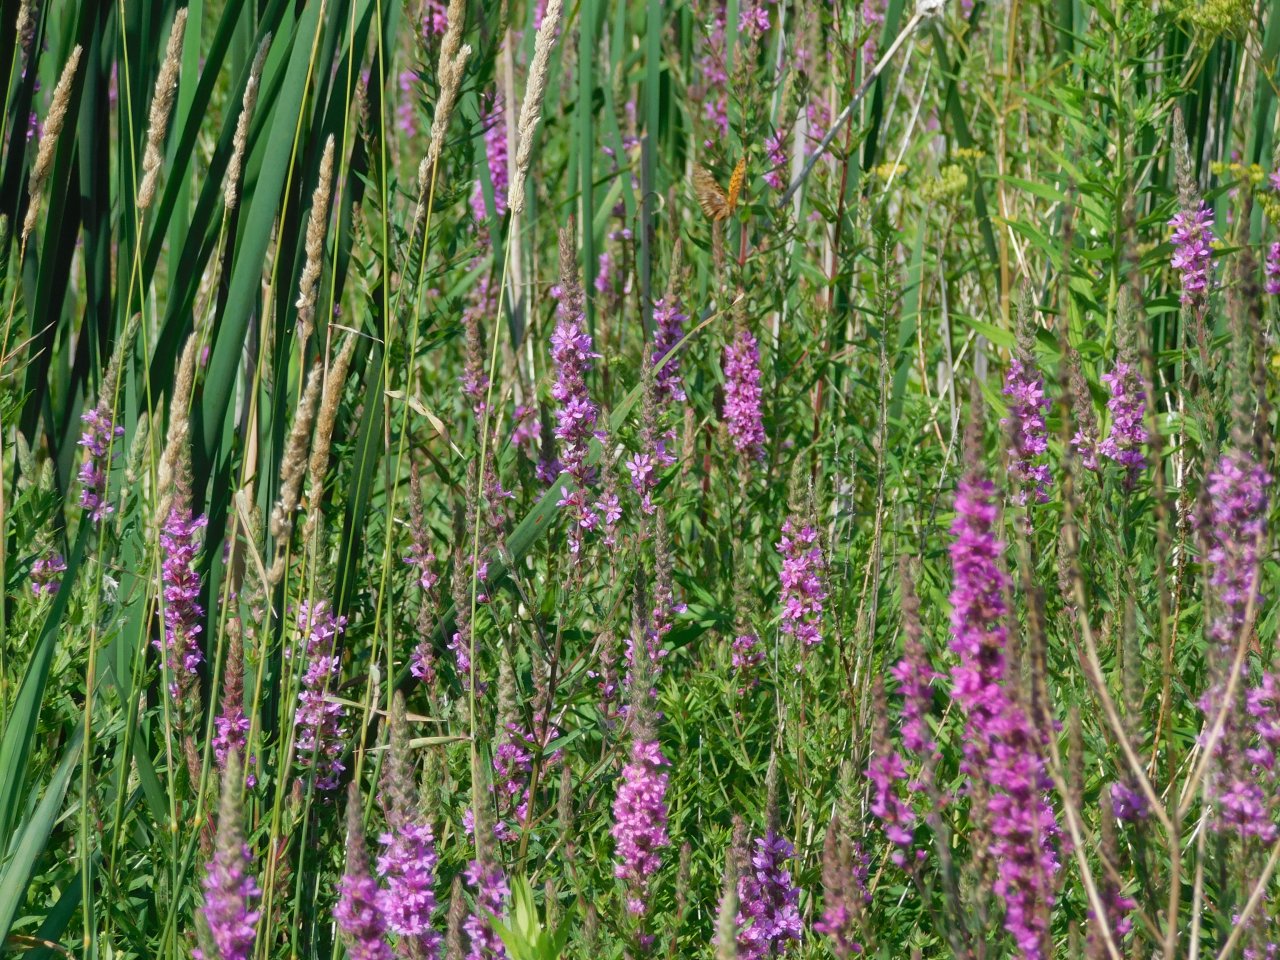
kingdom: Animalia
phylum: Arthropoda
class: Insecta
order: Lepidoptera
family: Nymphalidae
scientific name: Nymphalidae
